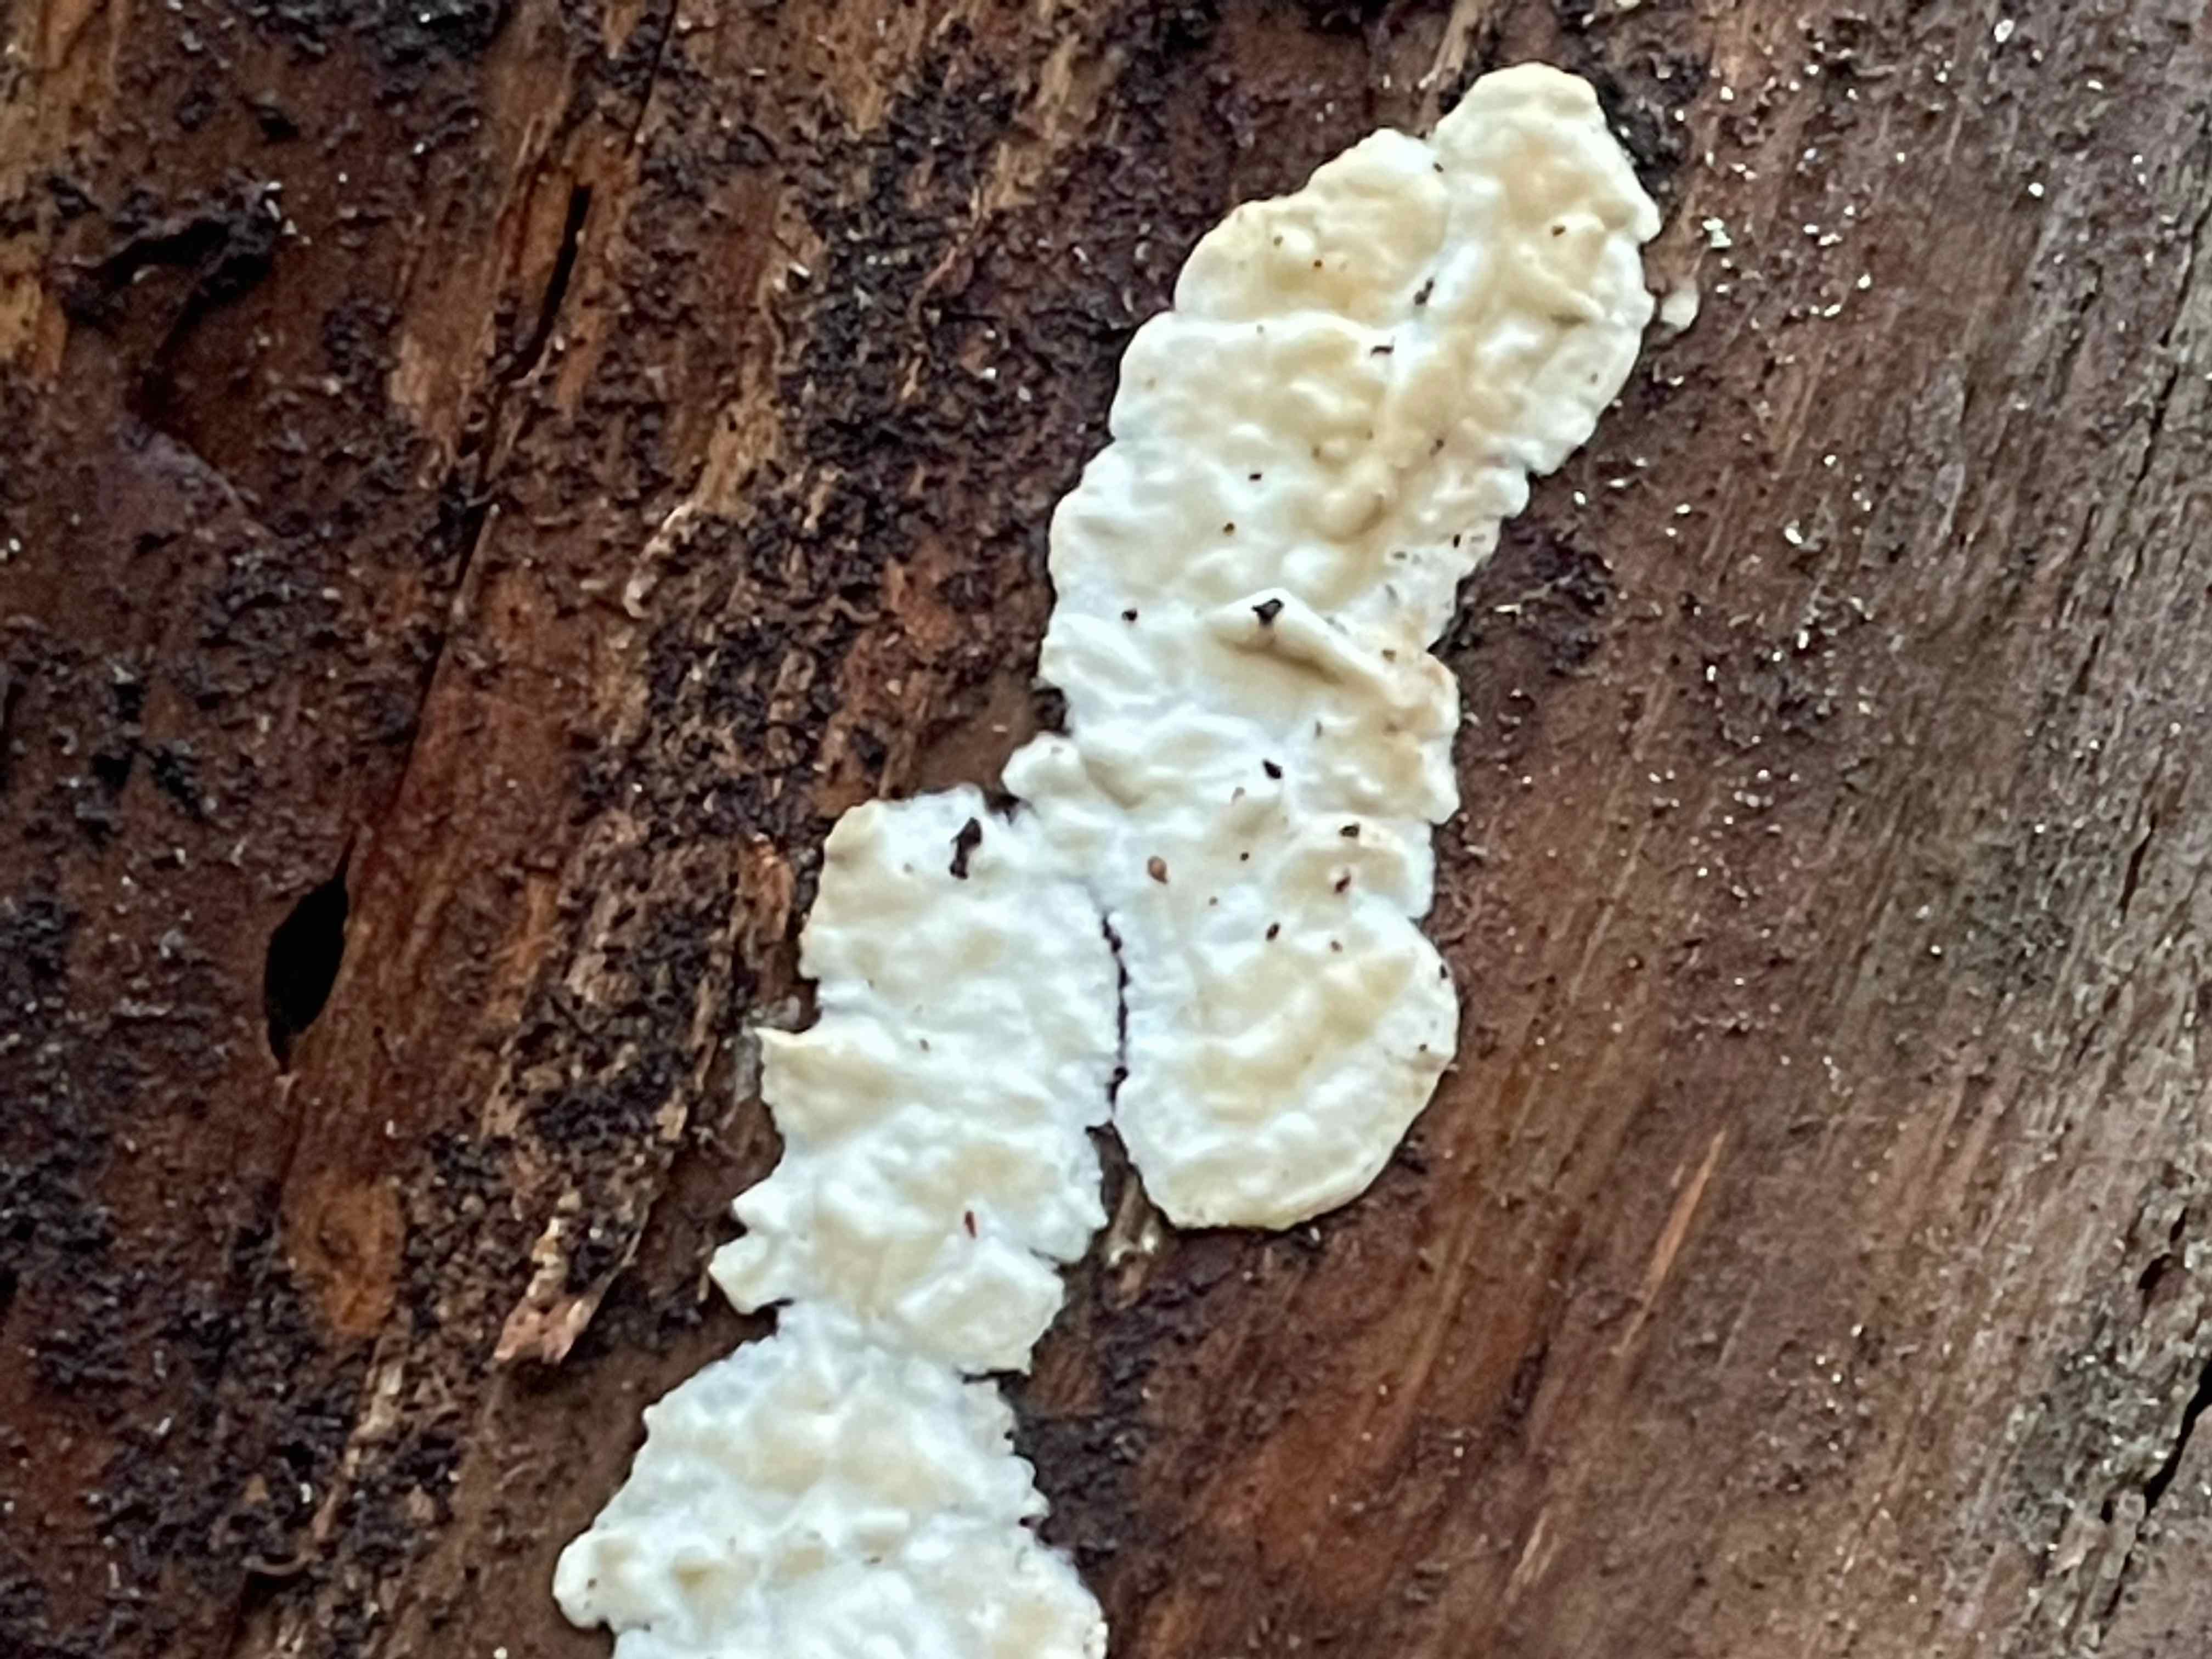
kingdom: Fungi
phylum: Basidiomycota
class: Agaricomycetes
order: Polyporales
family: Dacryobolaceae
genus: Dacryobolus
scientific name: Dacryobolus karstenii
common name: glat vulkanskorpe
